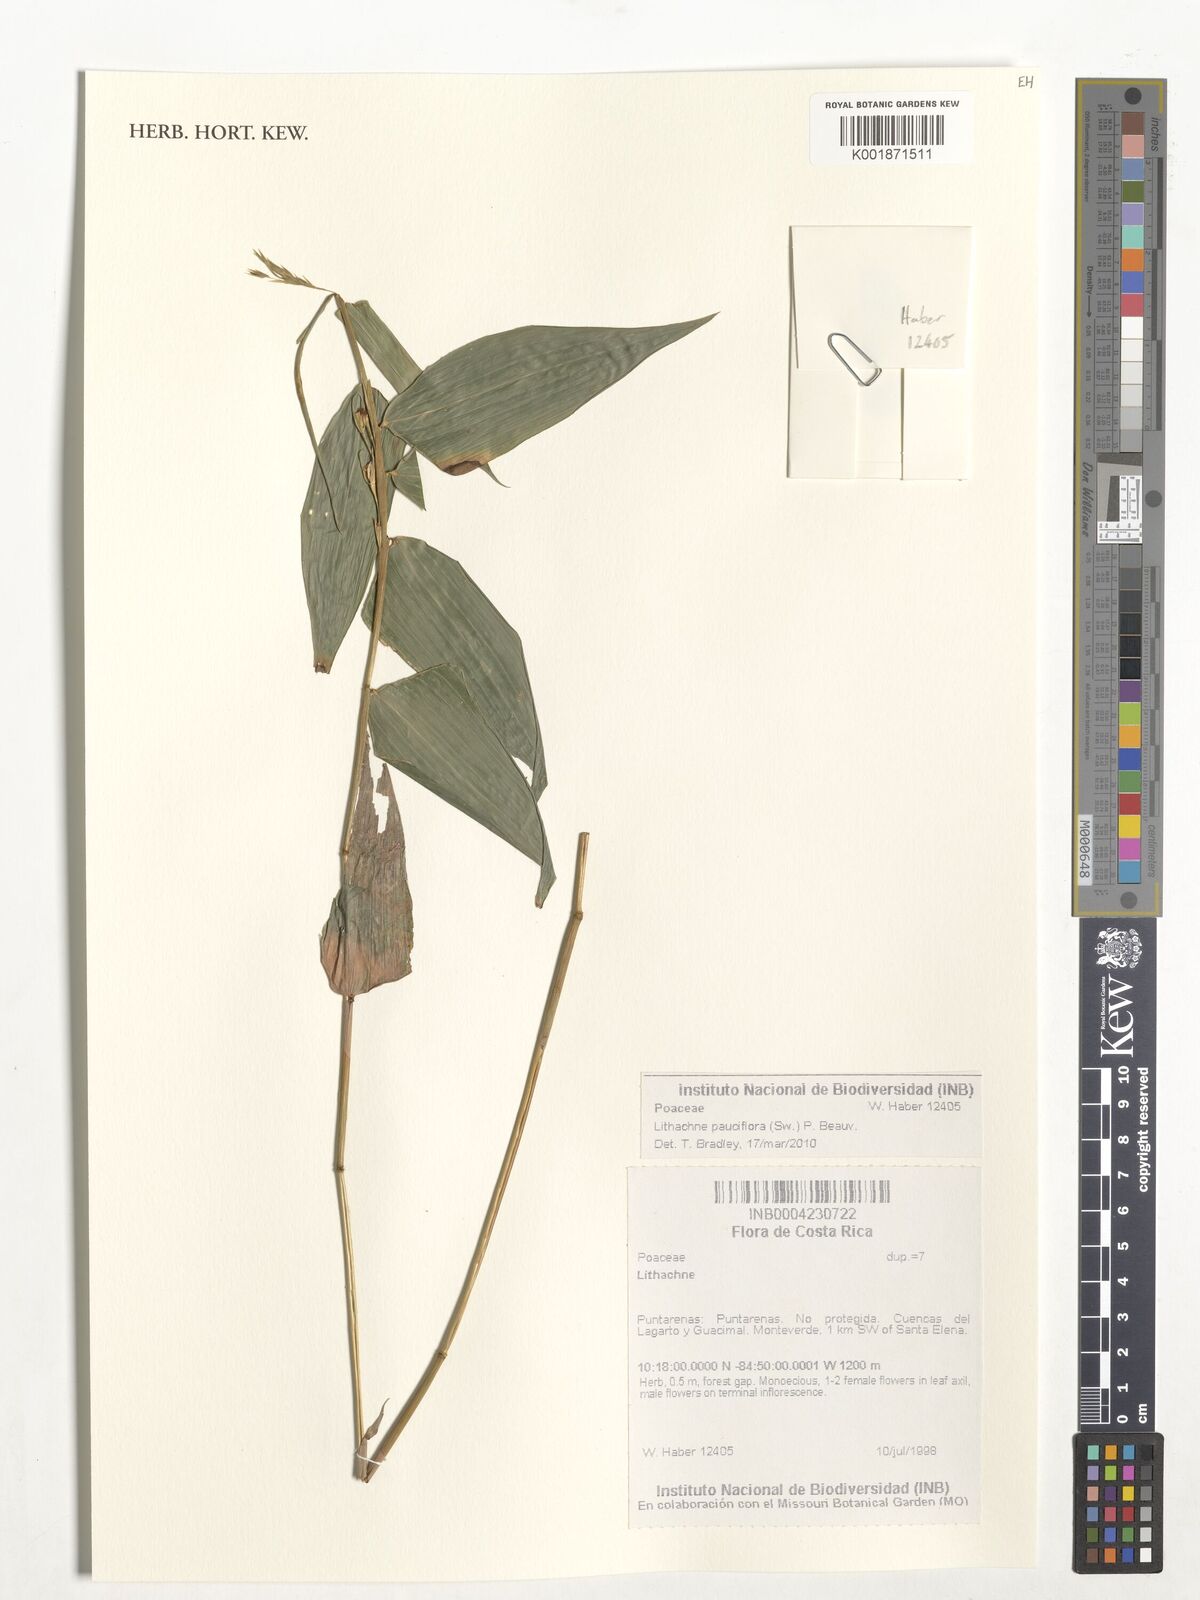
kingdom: Plantae
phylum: Tracheophyta
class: Liliopsida
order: Poales
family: Poaceae
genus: Lithachne
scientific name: Lithachne pauciflora
